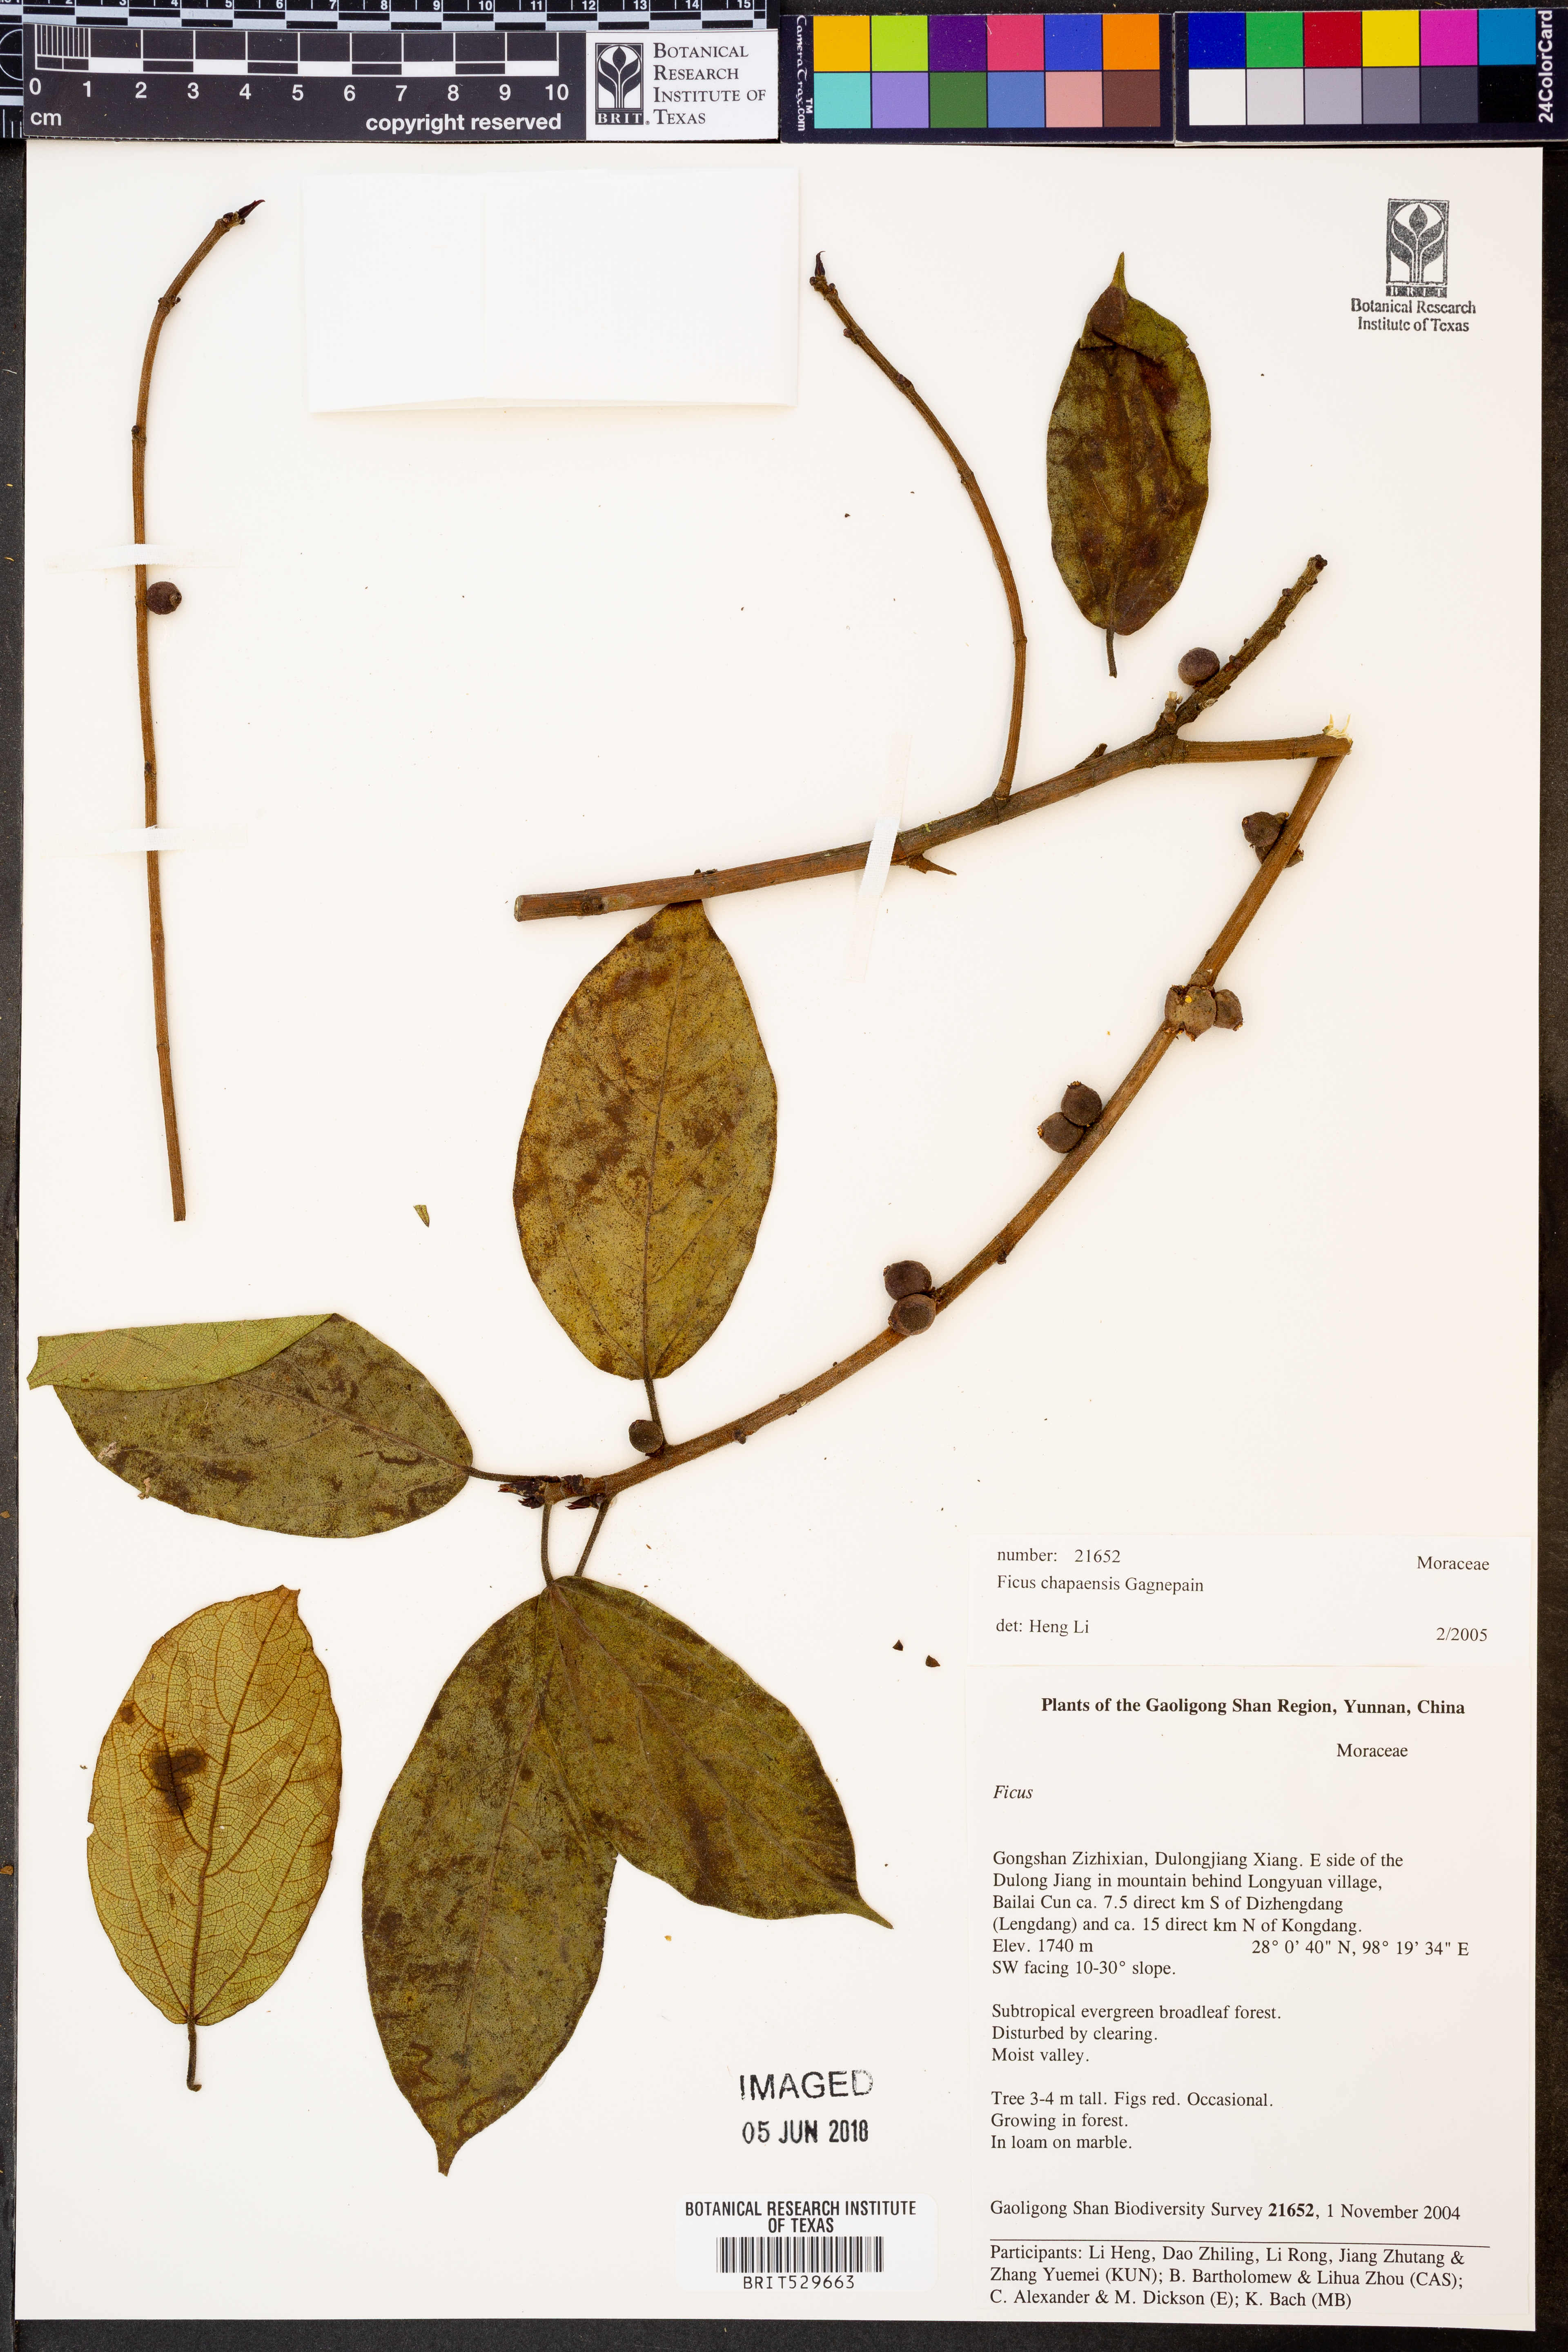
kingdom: Plantae
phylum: Tracheophyta
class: Magnoliopsida
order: Rosales
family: Moraceae
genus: Ficus
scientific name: Ficus chapaensis
